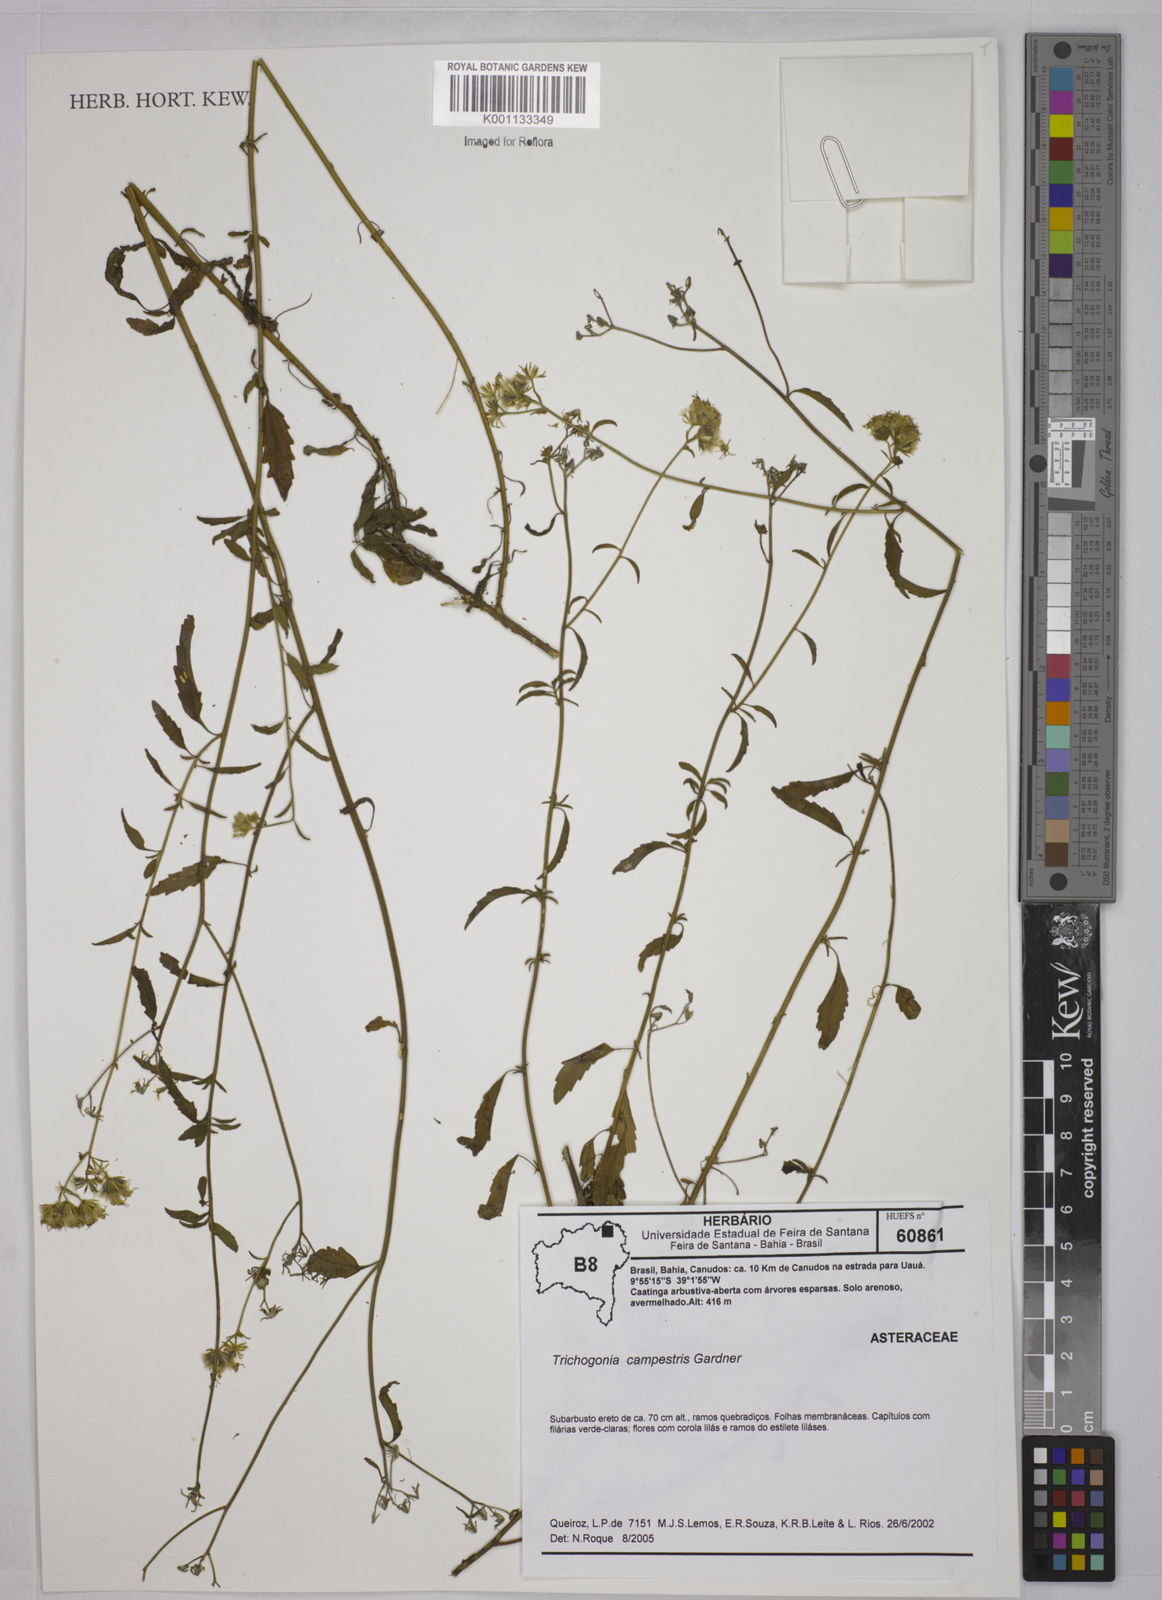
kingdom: Plantae
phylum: Tracheophyta
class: Magnoliopsida
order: Asterales
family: Asteraceae
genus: Trichogonia
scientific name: Trichogonia campestris
